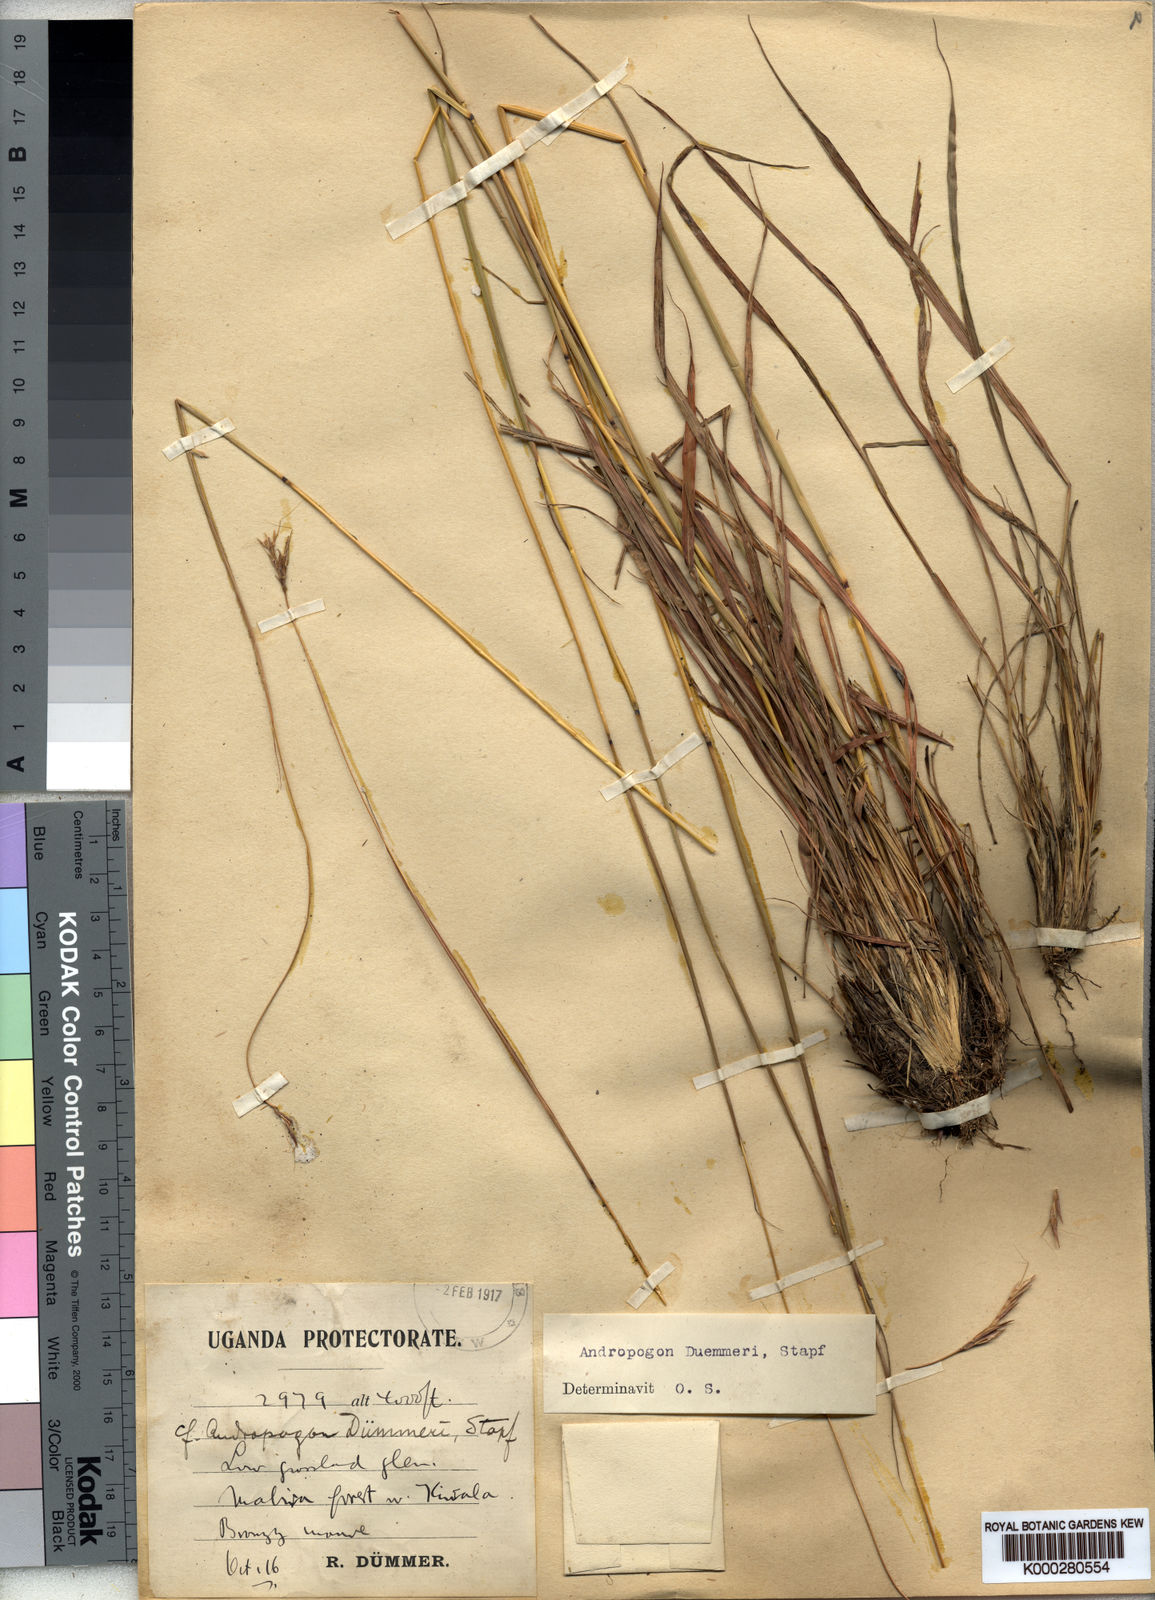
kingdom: Plantae
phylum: Tracheophyta
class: Liliopsida
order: Poales
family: Poaceae
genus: Andropogon
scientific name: Andropogon
